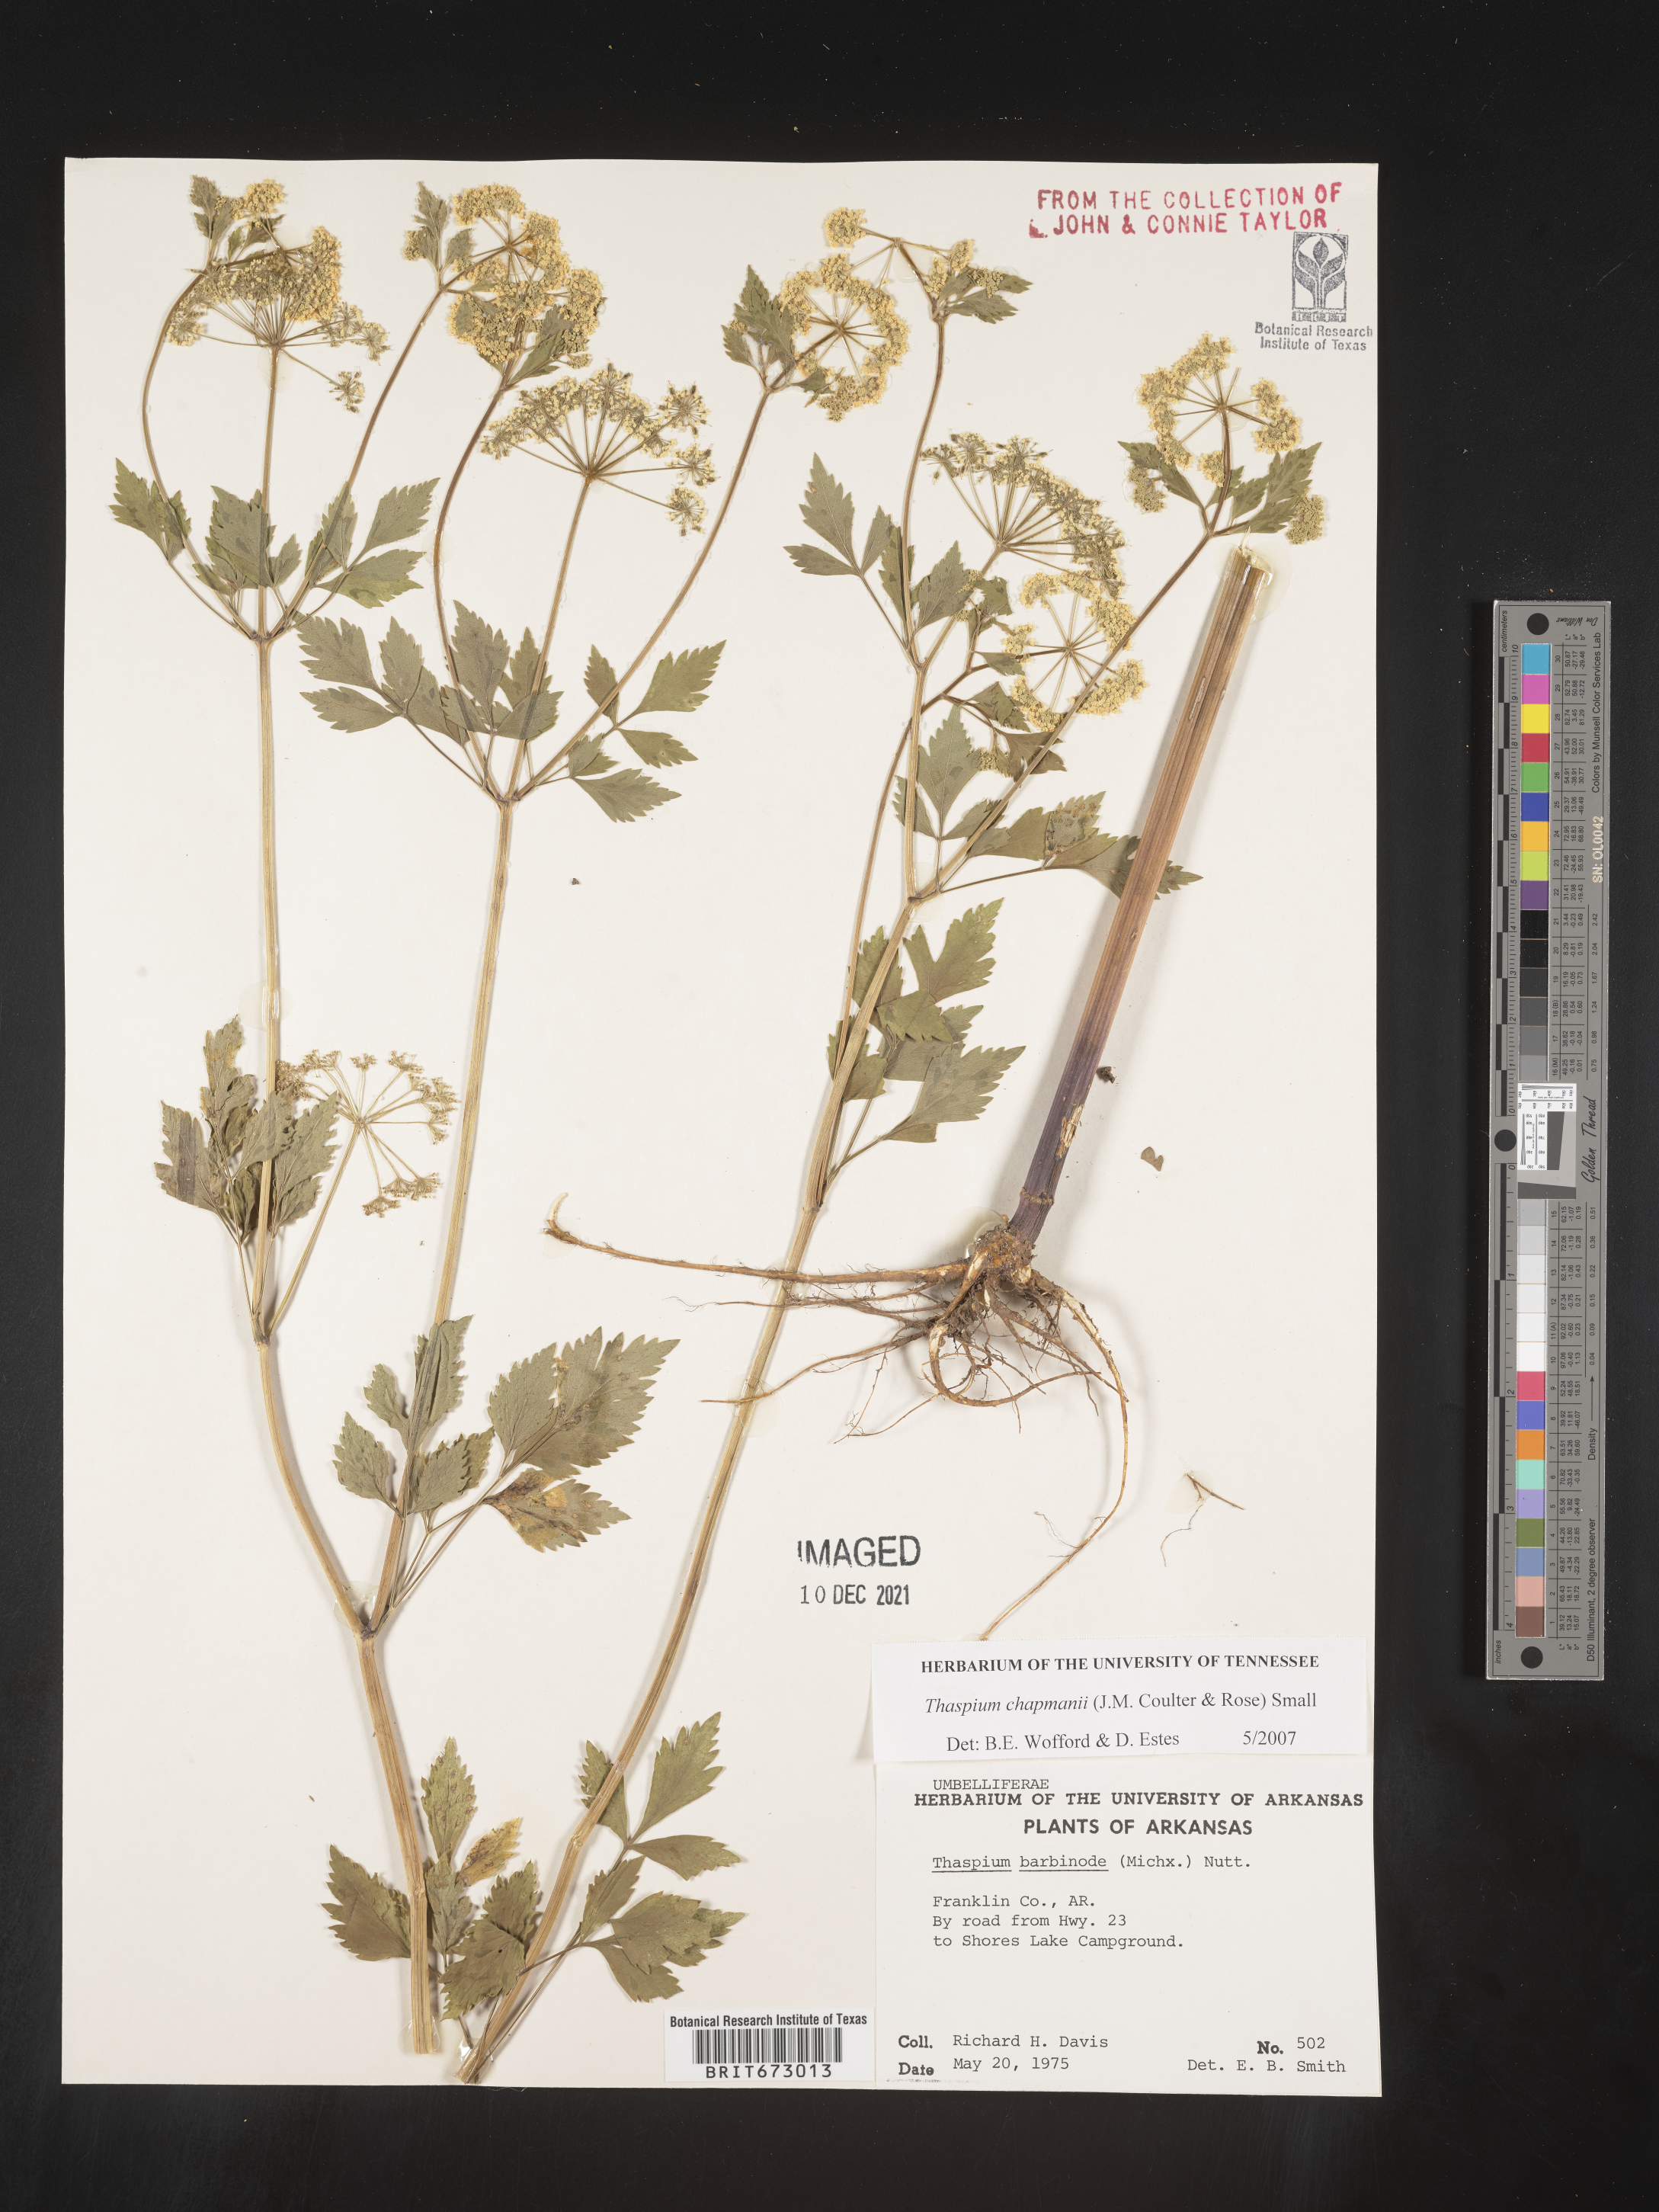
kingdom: Plantae
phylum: Tracheophyta
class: Magnoliopsida
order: Apiales
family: Apiaceae
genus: Thaspium
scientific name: Thaspium barbinode
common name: Bearded meadow-parsnip
